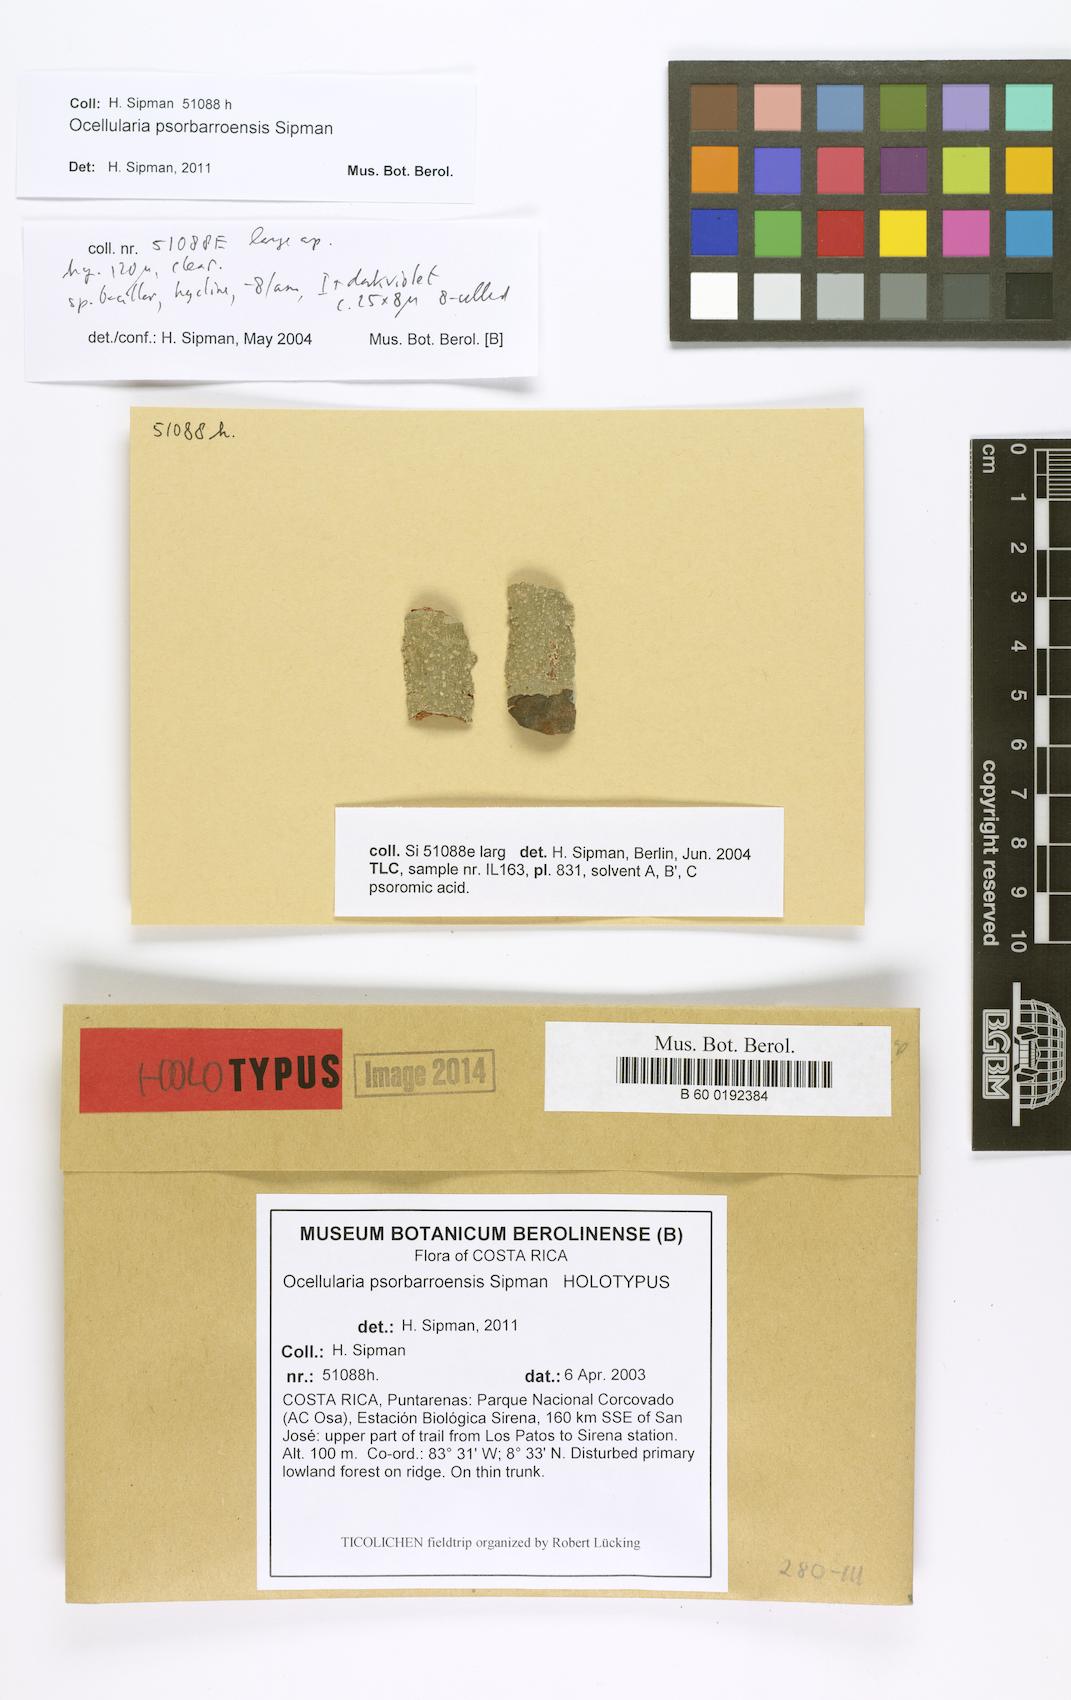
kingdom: Fungi
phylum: Ascomycota
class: Lecanoromycetes
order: Ostropales
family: Graphidaceae
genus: Ocellularia
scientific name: Ocellularia psorbarroensis
